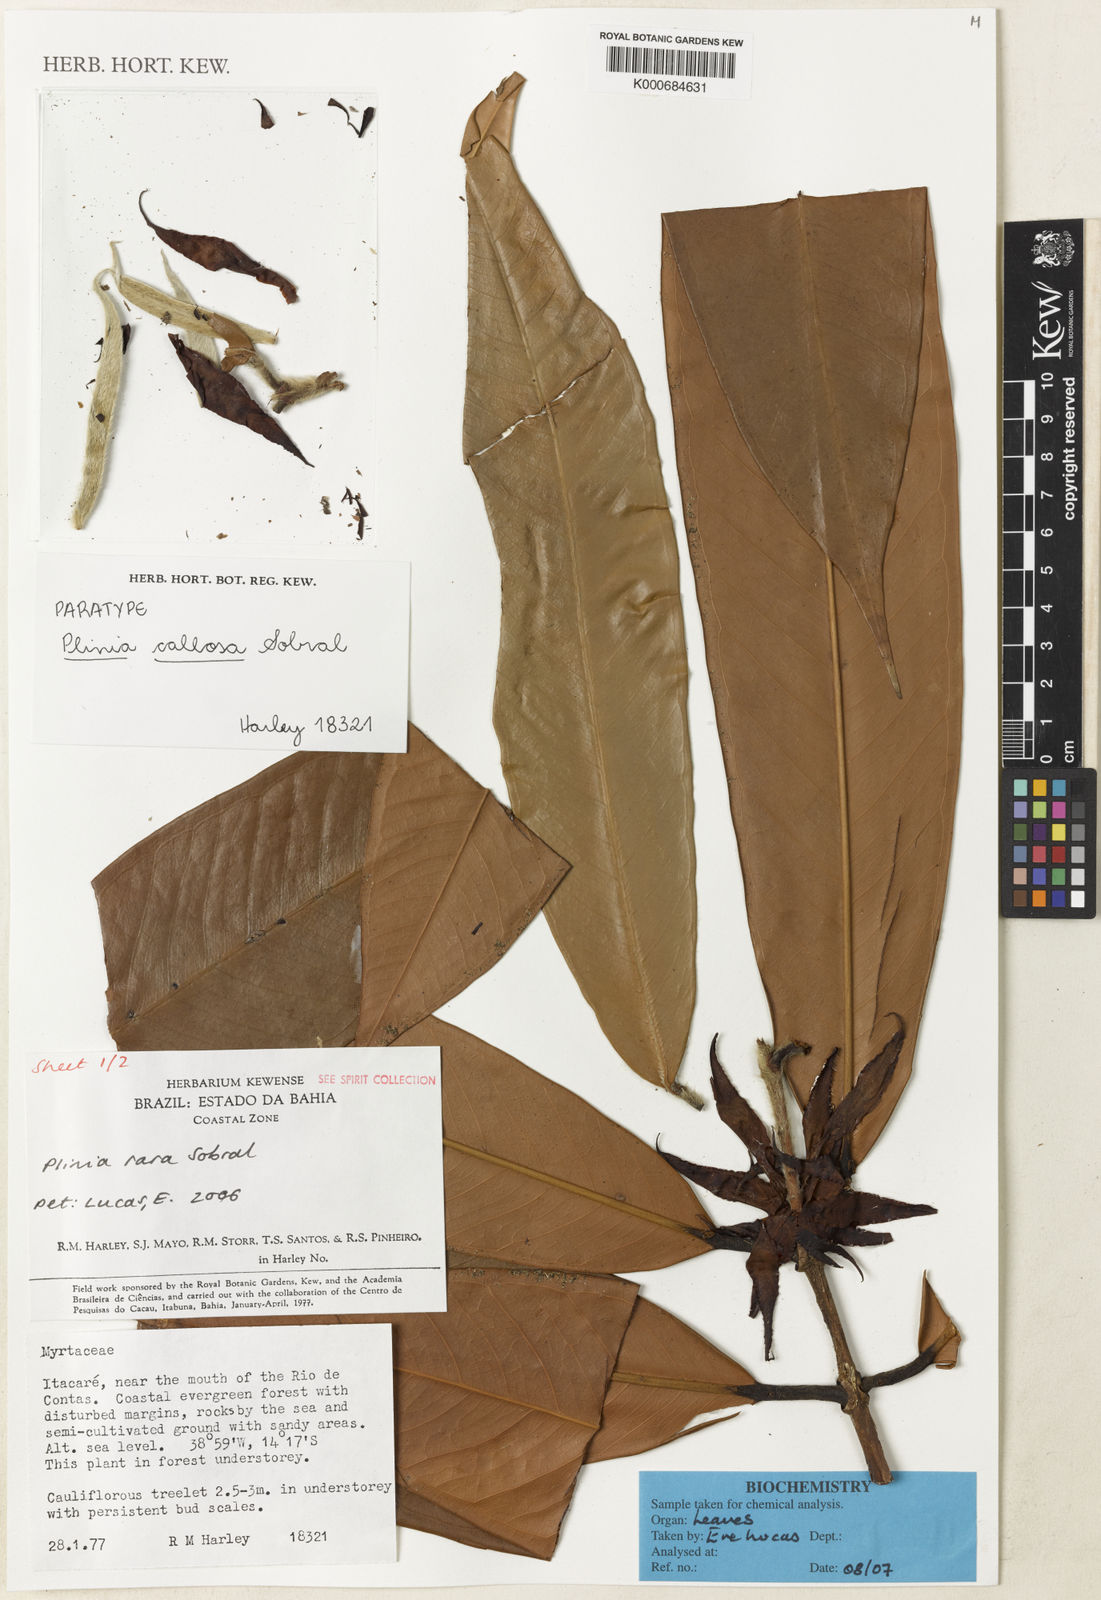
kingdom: Plantae
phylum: Tracheophyta
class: Magnoliopsida
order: Myrtales
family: Myrtaceae
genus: Plinia
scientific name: Plinia rara
